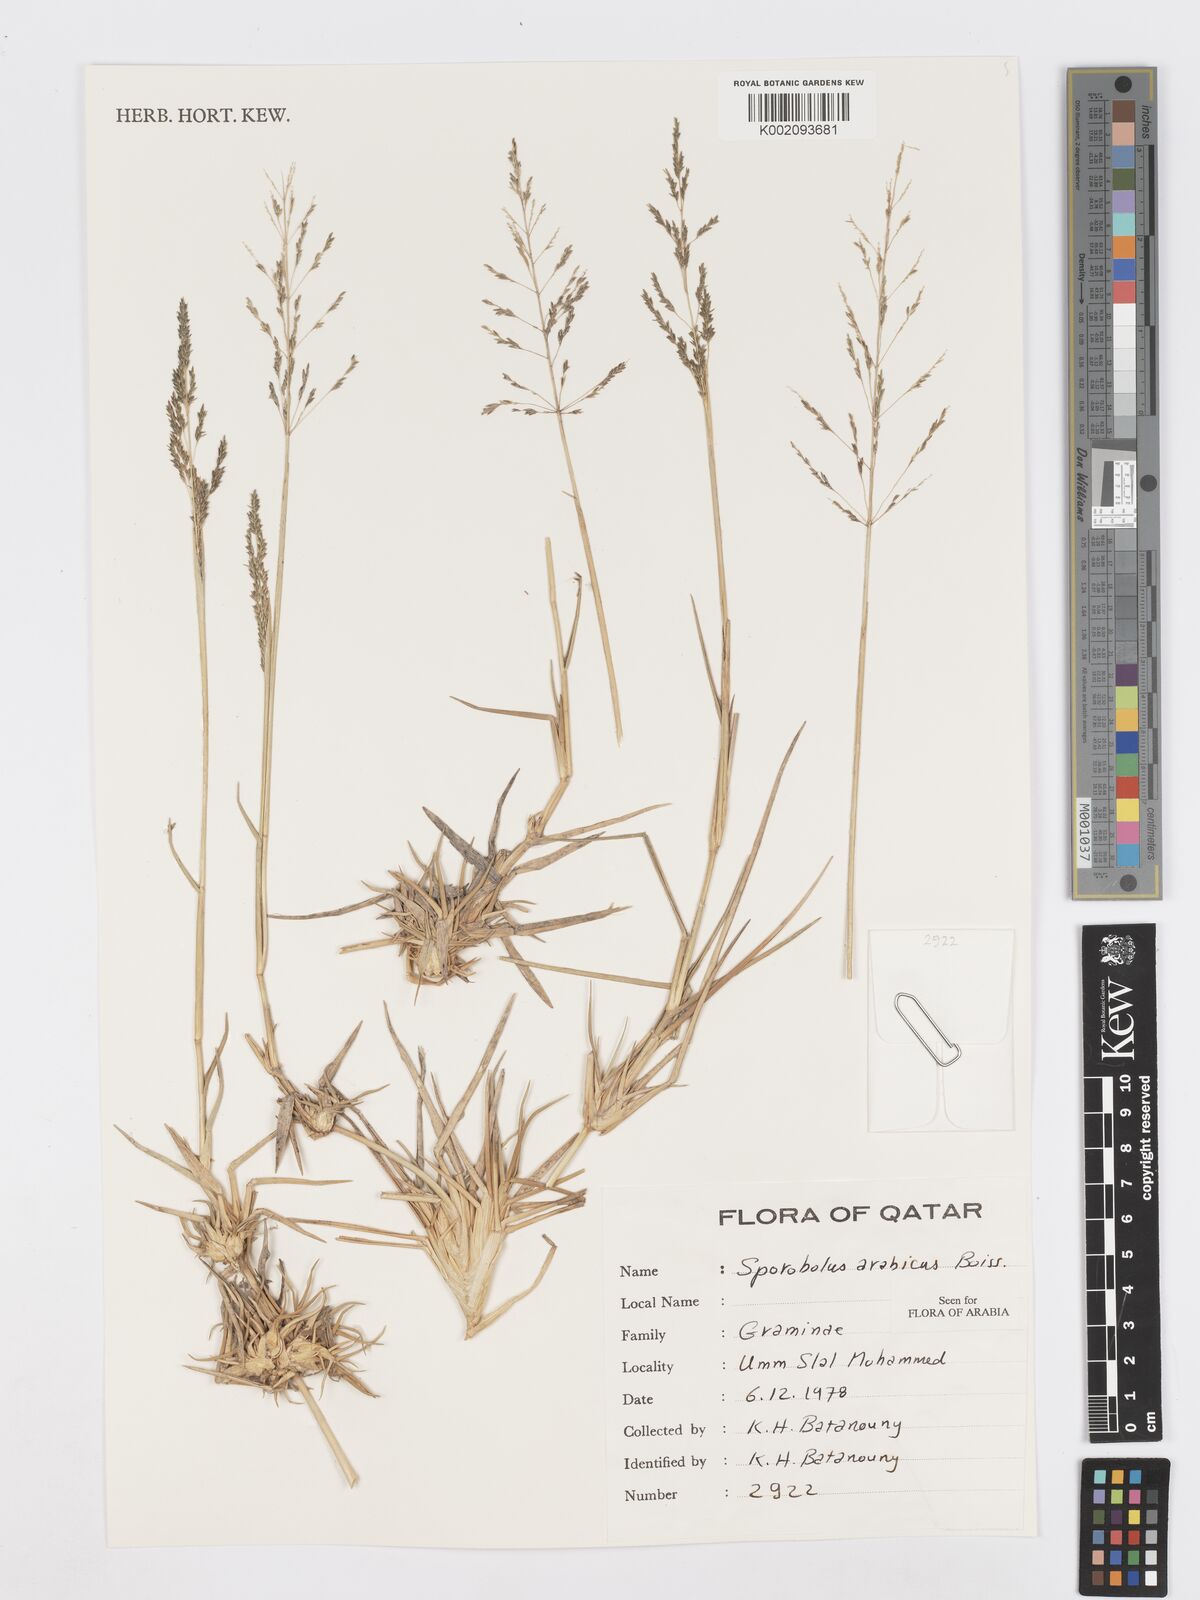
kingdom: Plantae
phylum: Tracheophyta
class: Liliopsida
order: Poales
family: Poaceae
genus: Sporobolus
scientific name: Sporobolus ioclados
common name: Pan dropseed
